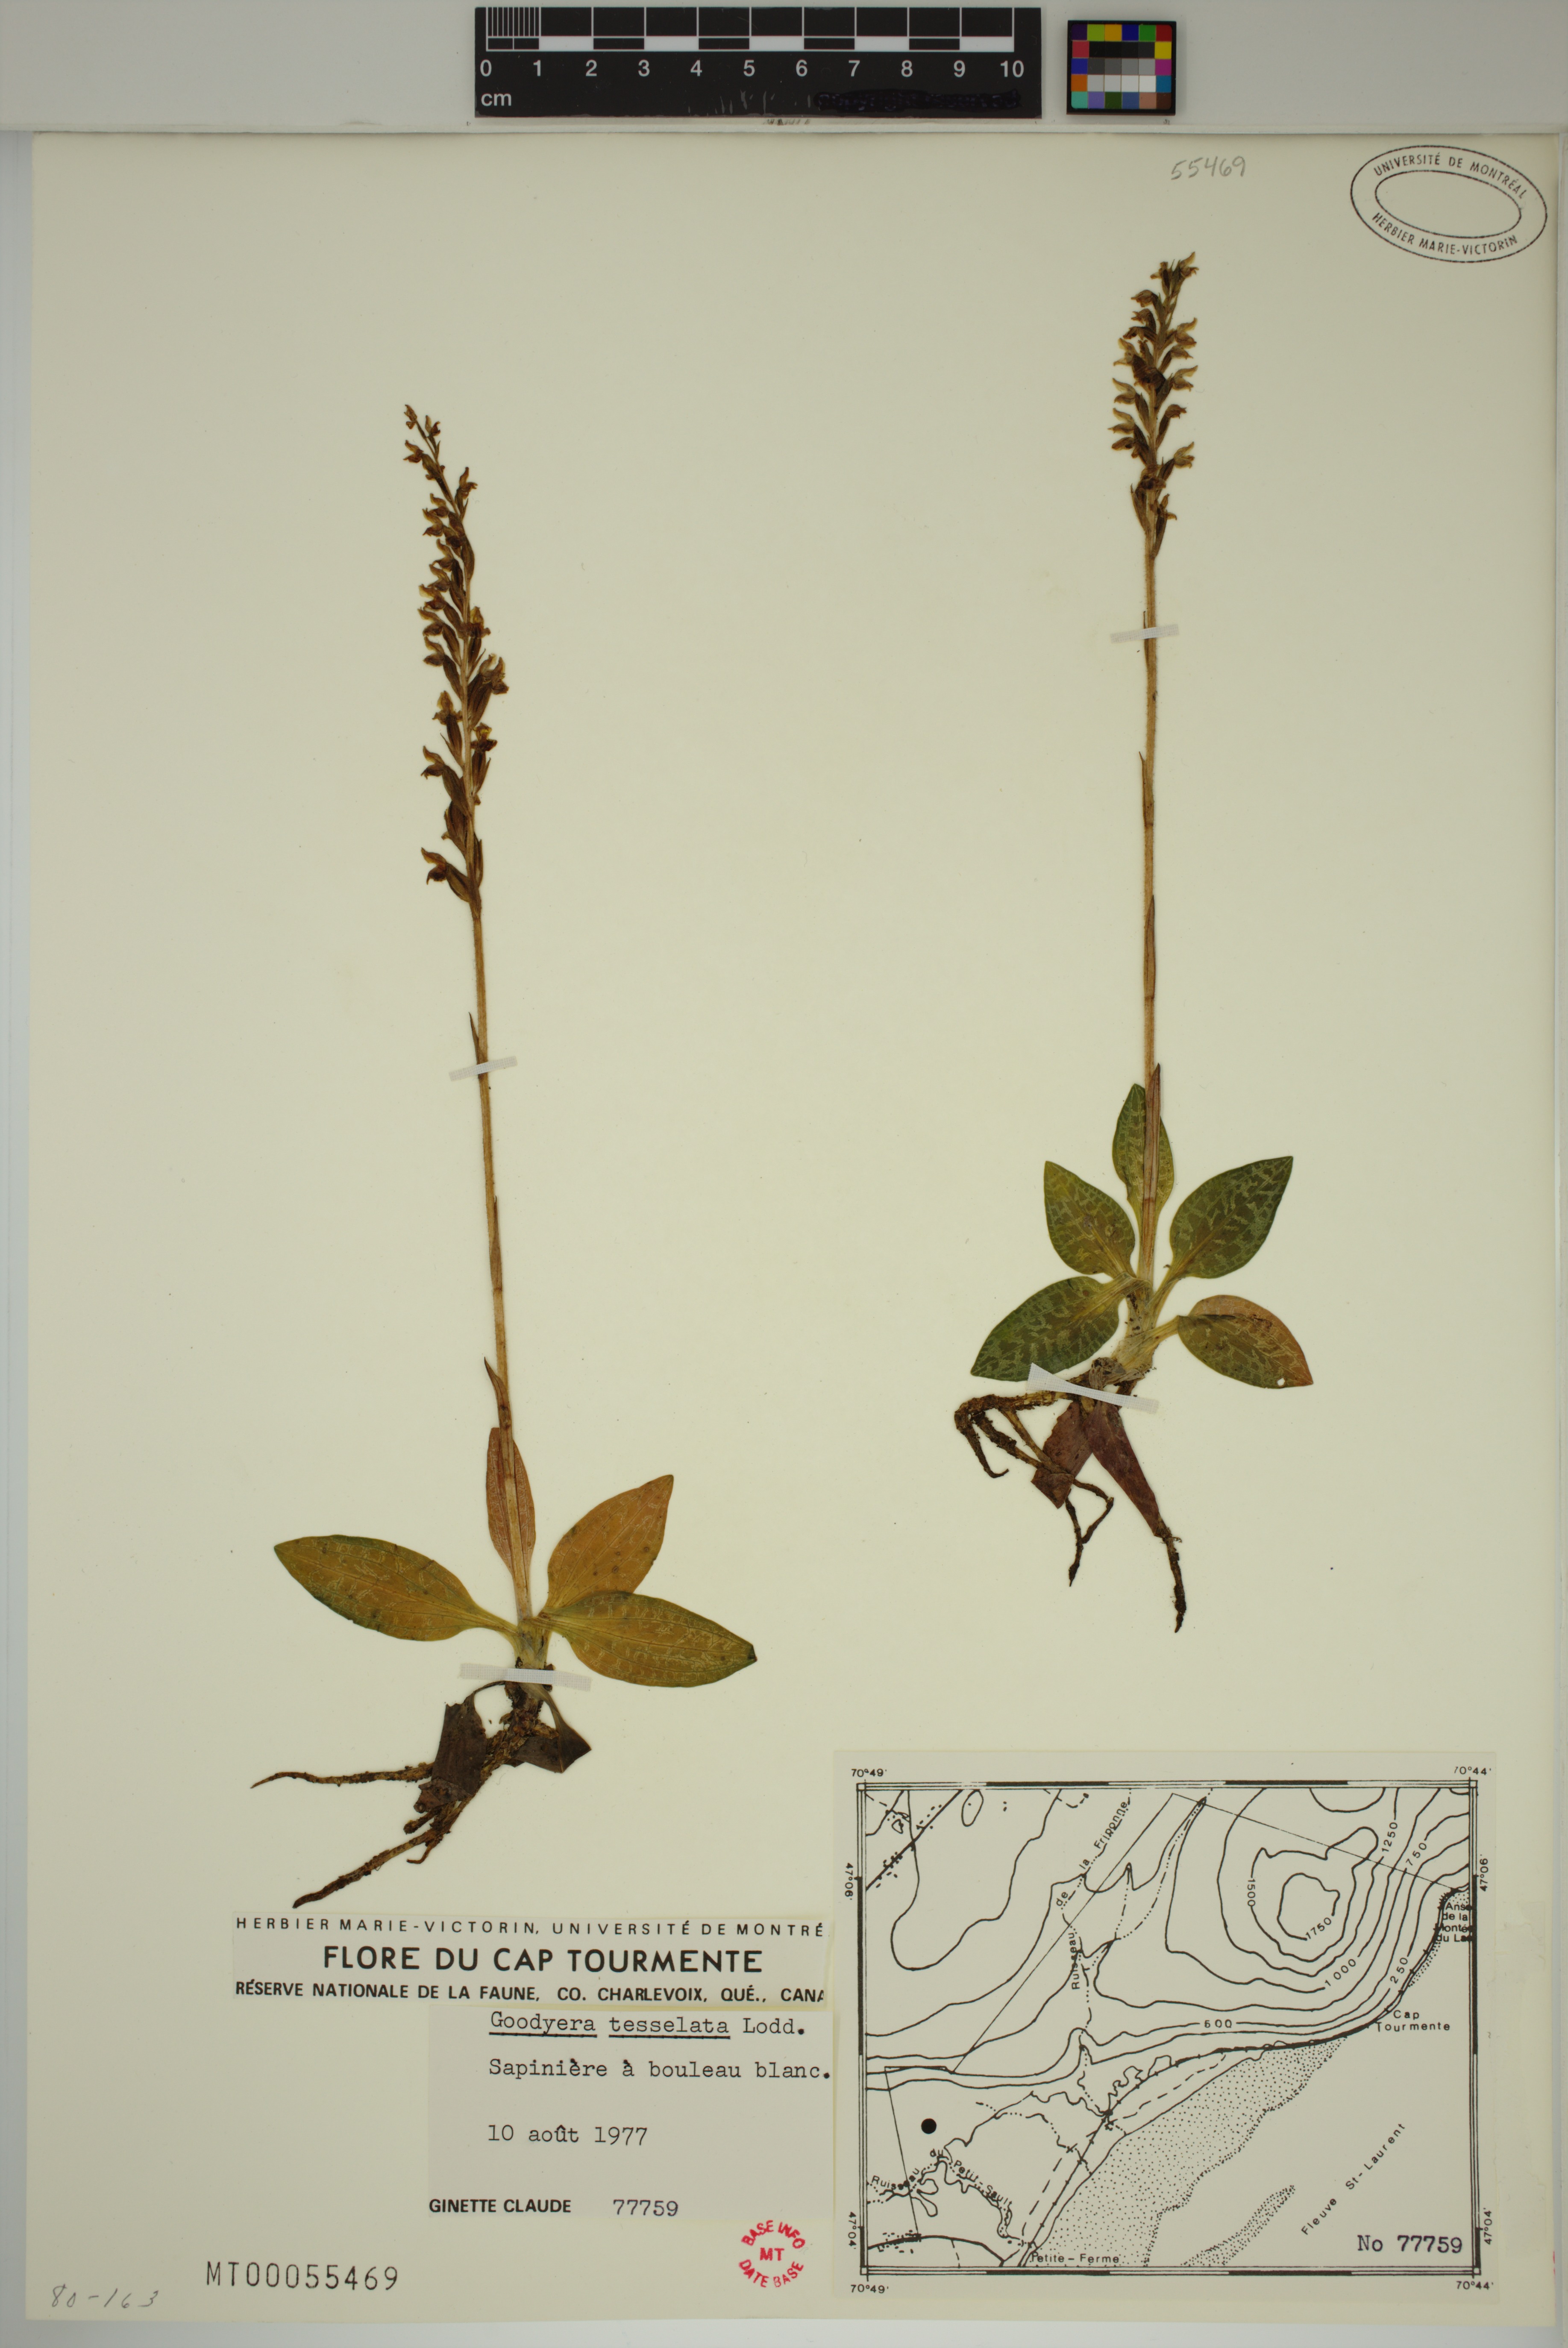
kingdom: Plantae
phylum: Tracheophyta
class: Liliopsida
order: Asparagales
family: Orchidaceae
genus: Goodyera
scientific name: Goodyera tesselata
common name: Checkered rattlesnake-plantain
